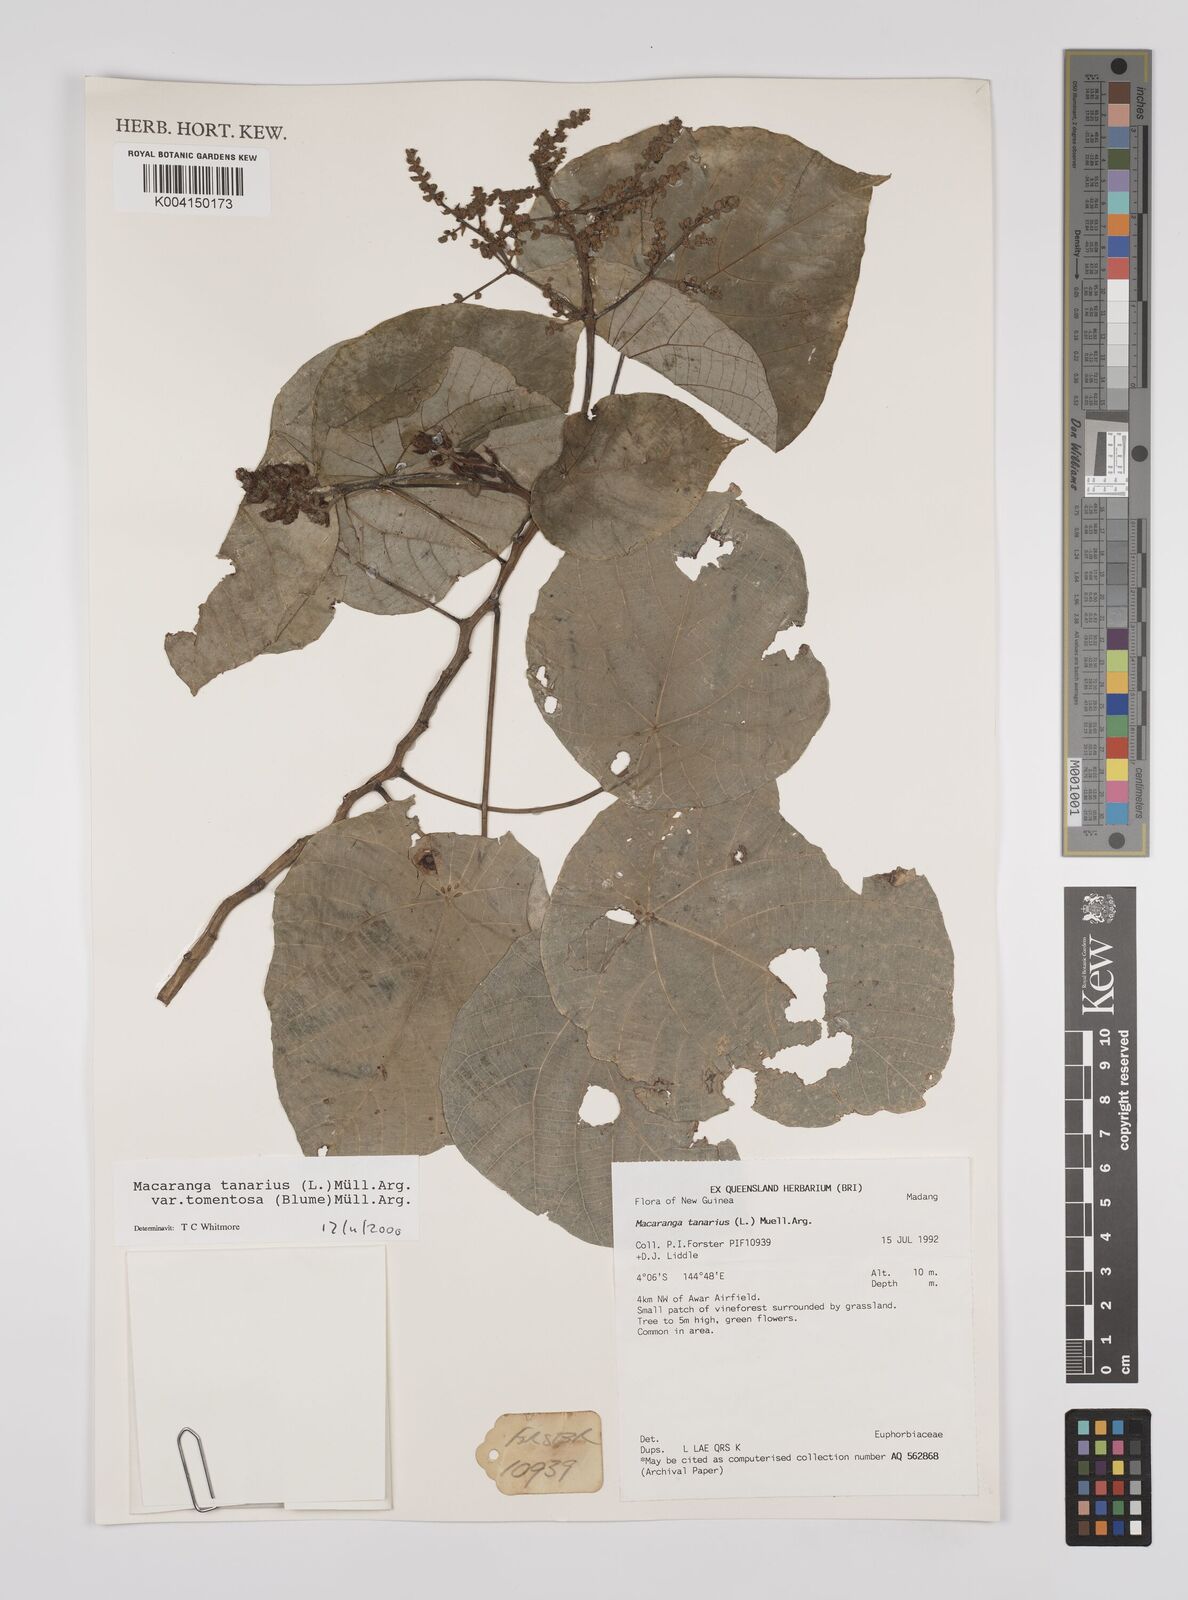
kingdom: Plantae
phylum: Tracheophyta
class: Magnoliopsida
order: Malpighiales
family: Euphorbiaceae
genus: Macaranga
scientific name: Macaranga tanarius
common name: Parasol leaf tree
